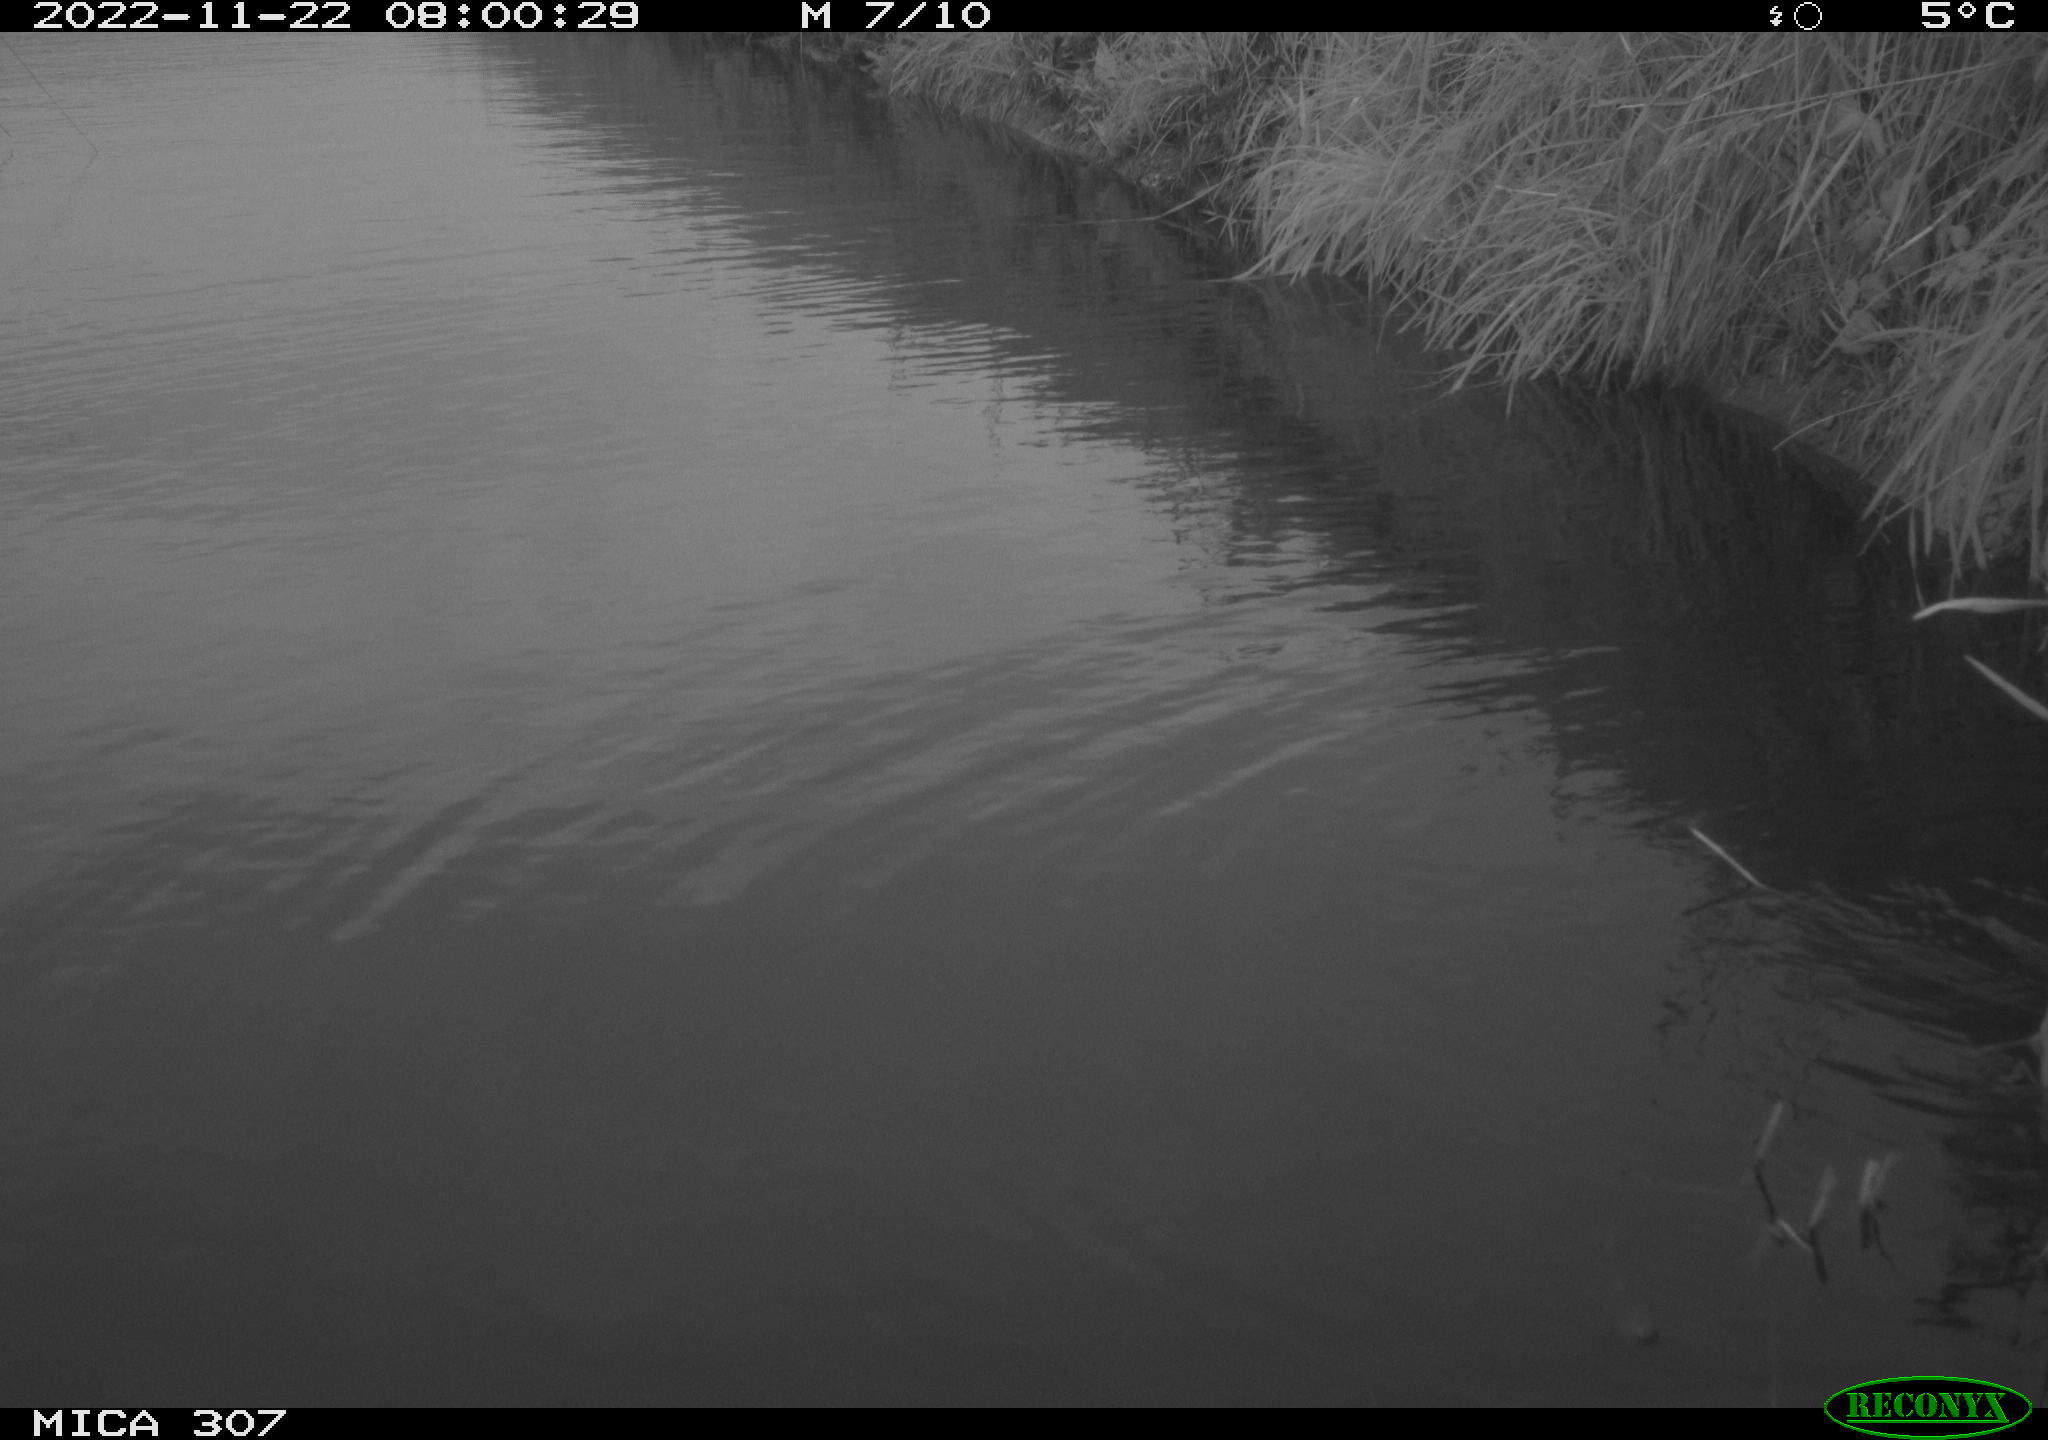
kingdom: Animalia
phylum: Chordata
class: Aves
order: Gruiformes
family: Rallidae
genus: Gallinula
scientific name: Gallinula chloropus
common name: Common moorhen
